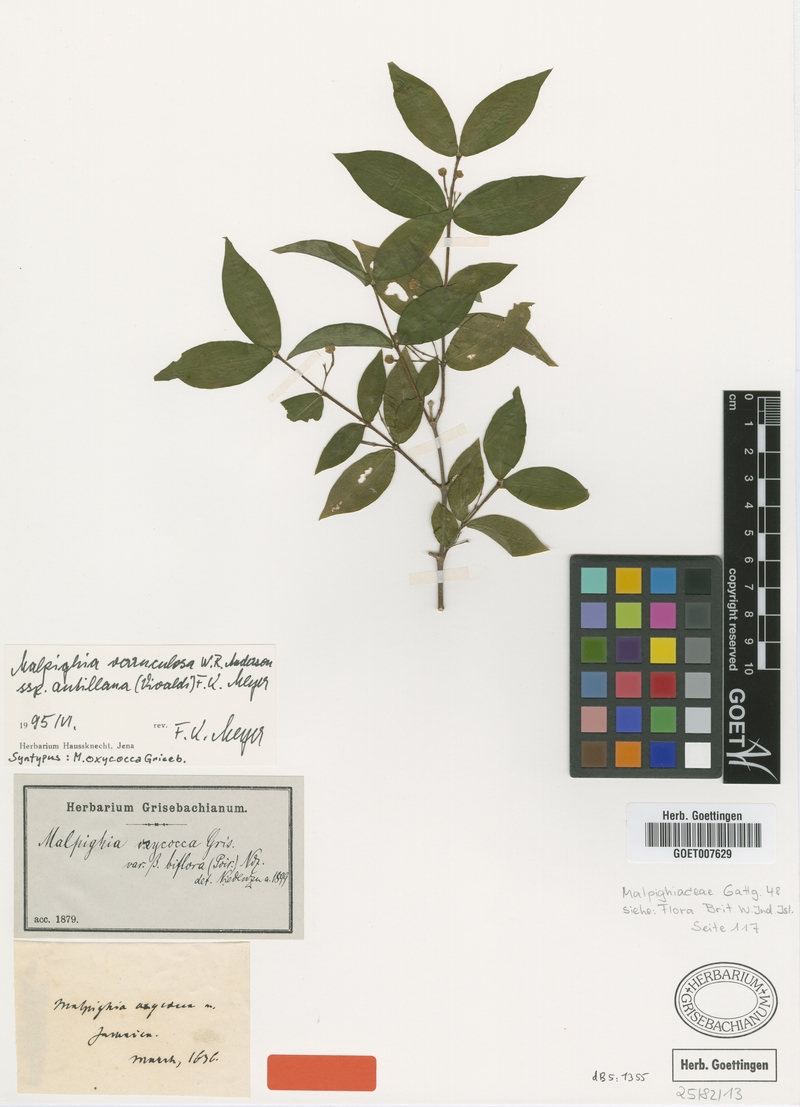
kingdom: Plantae
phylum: Tracheophyta
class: Magnoliopsida
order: Malpighiales
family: Malpighiaceae
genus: Malpighia
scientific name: Malpighia verruculosa
